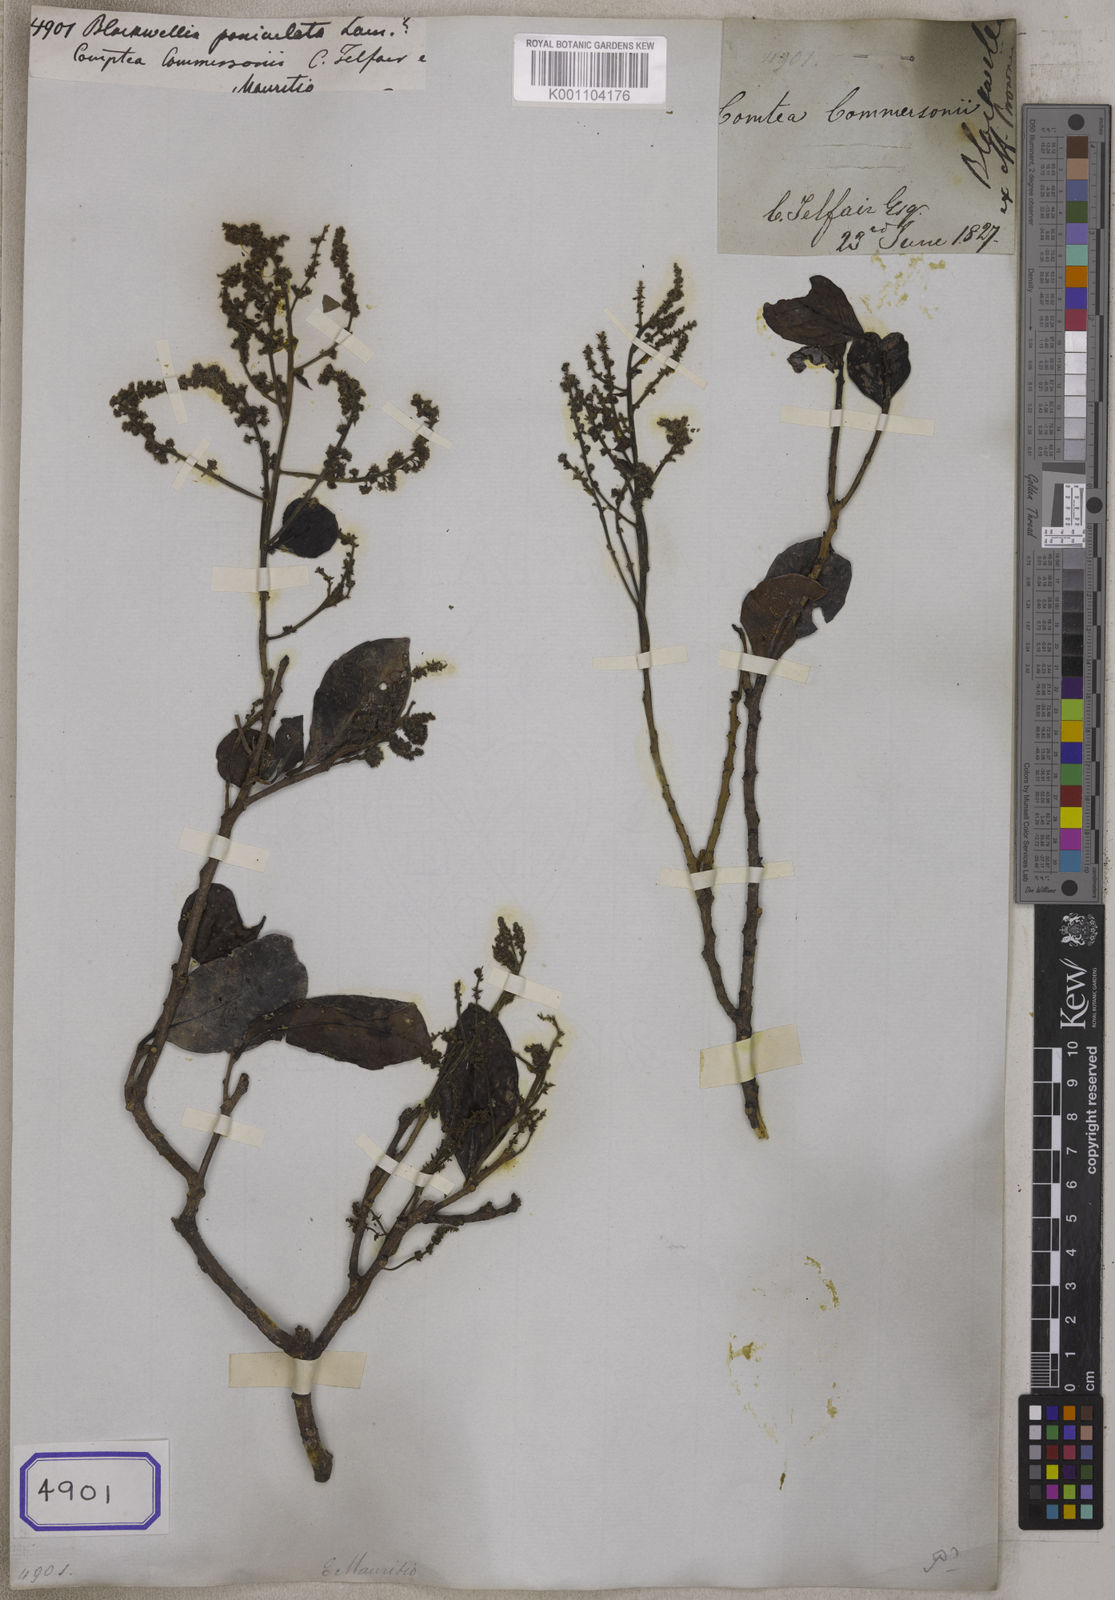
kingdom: Plantae
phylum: Tracheophyta
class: Magnoliopsida
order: Malpighiales
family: Salicaceae
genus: Homalium
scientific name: Homalium erianthum
